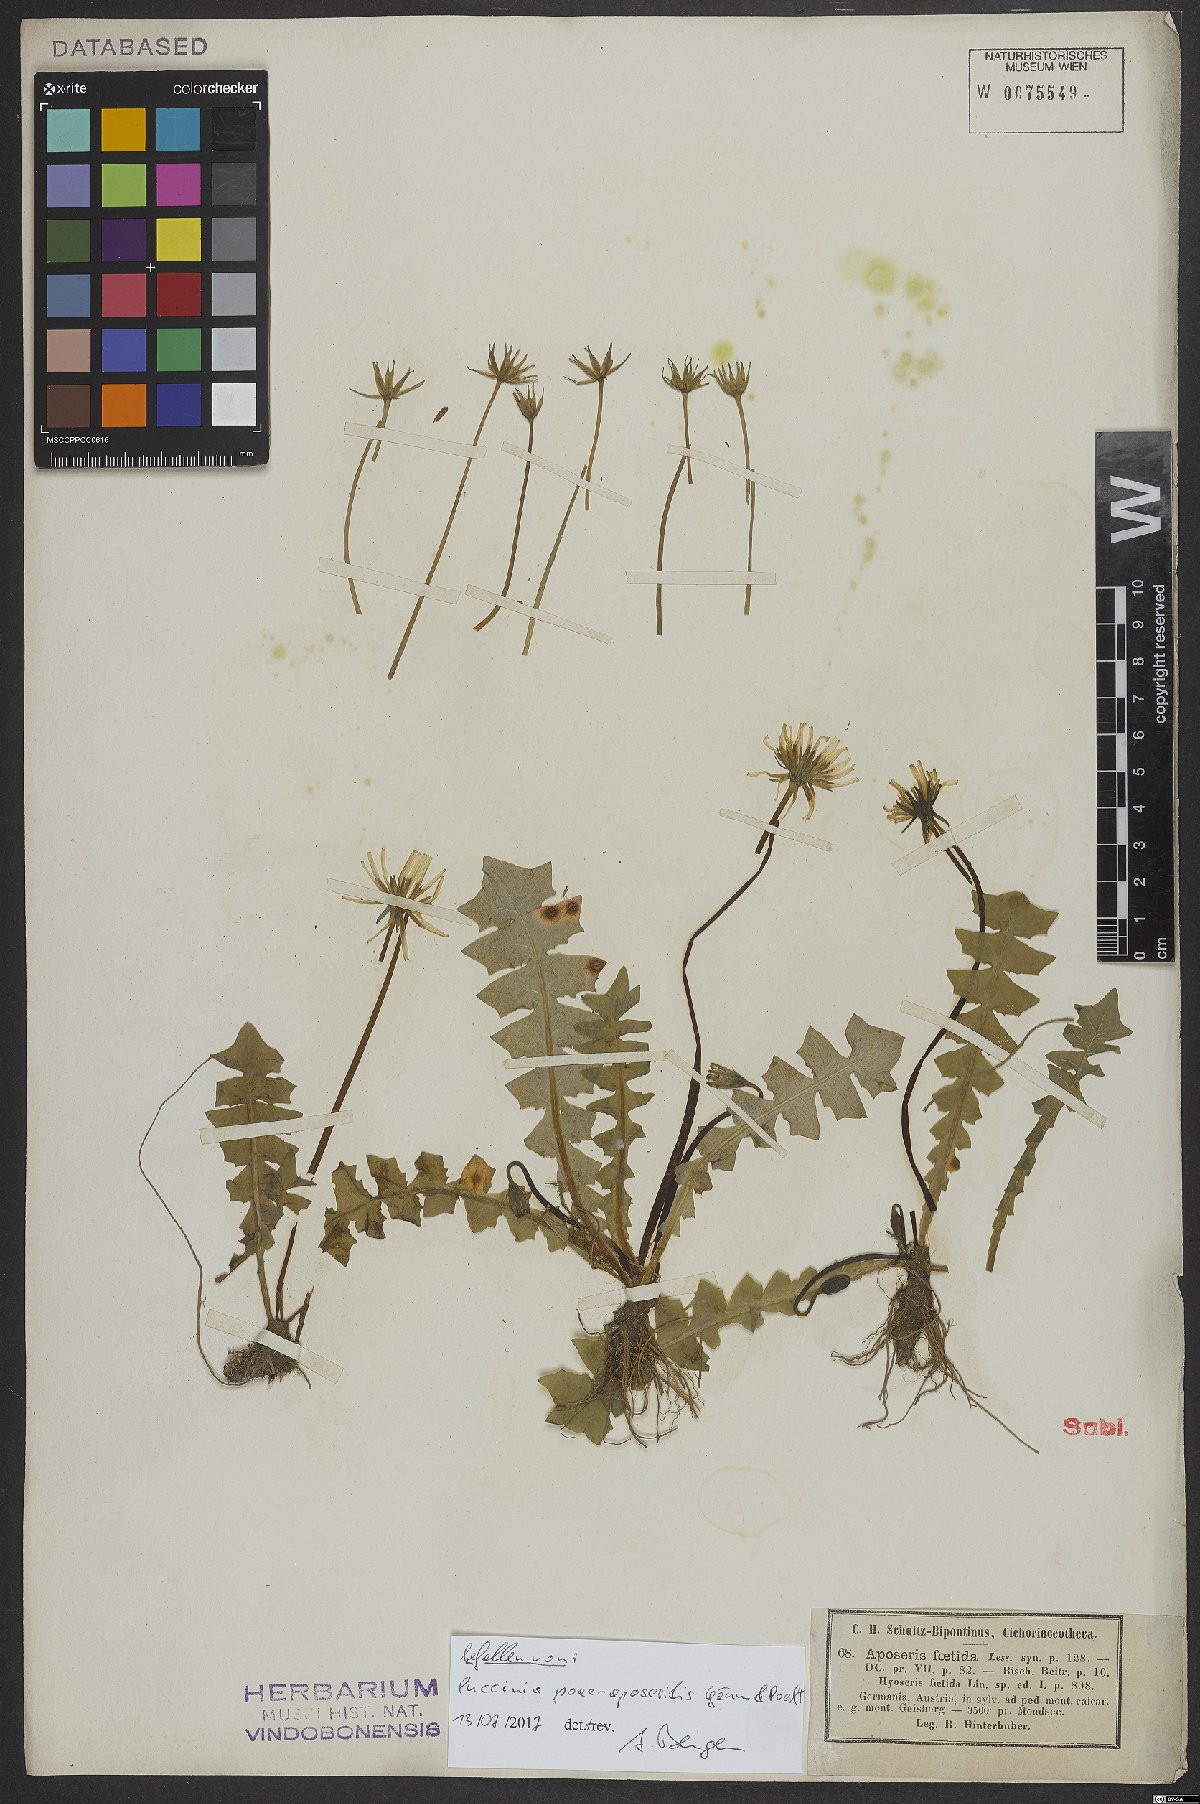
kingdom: Plantae
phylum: Tracheophyta
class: Magnoliopsida
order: Asterales
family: Asteraceae
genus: Aposeris
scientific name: Aposeris foetida
